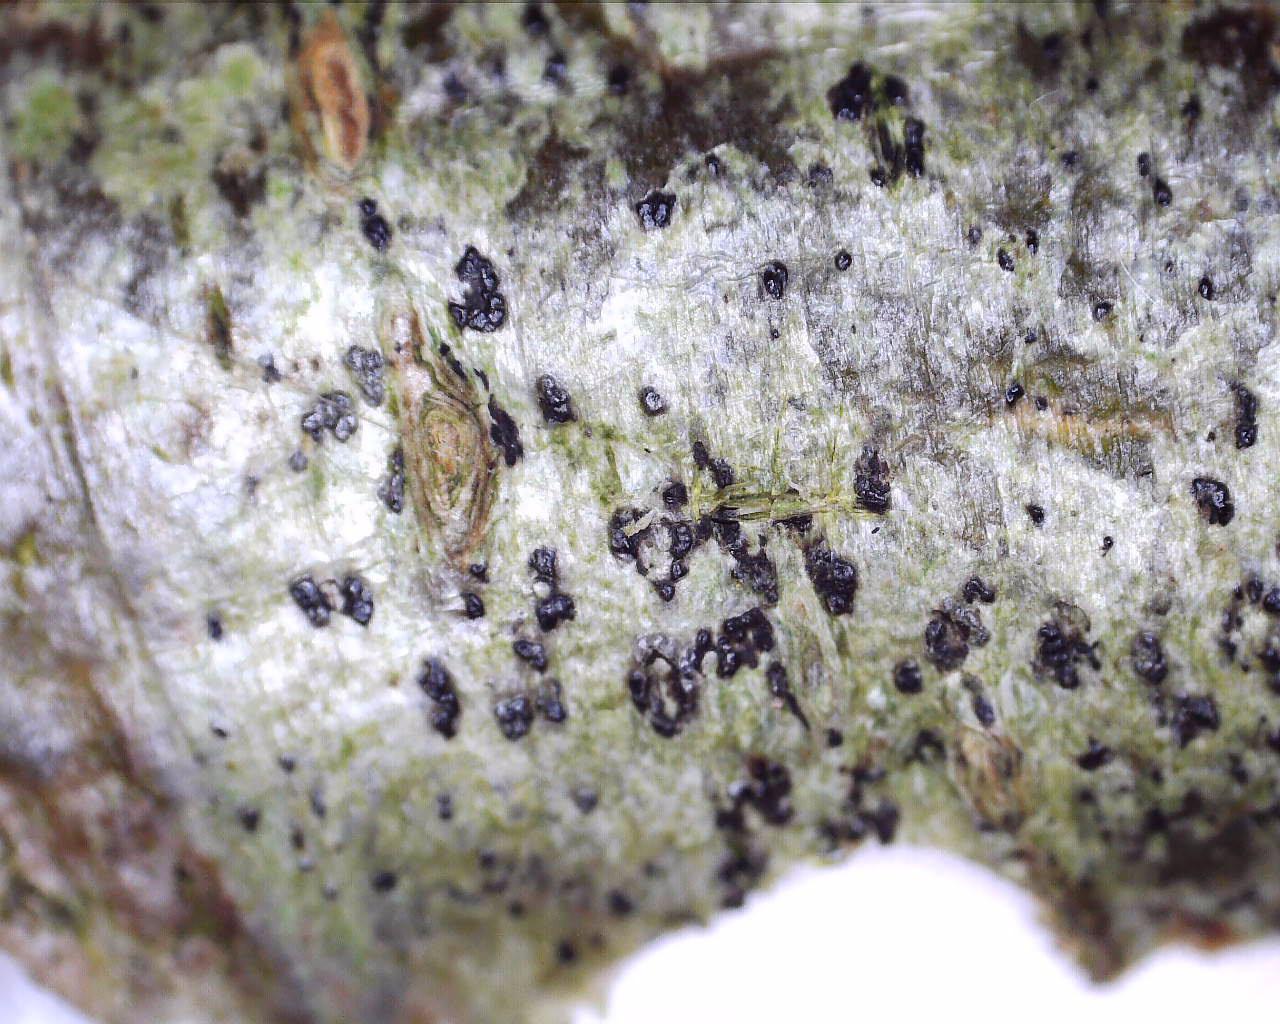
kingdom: Fungi
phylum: Ascomycota
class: Arthoniomycetes
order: Arthoniales
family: Arthoniaceae
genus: Arthothelium
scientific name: Arthothelium ruanum
